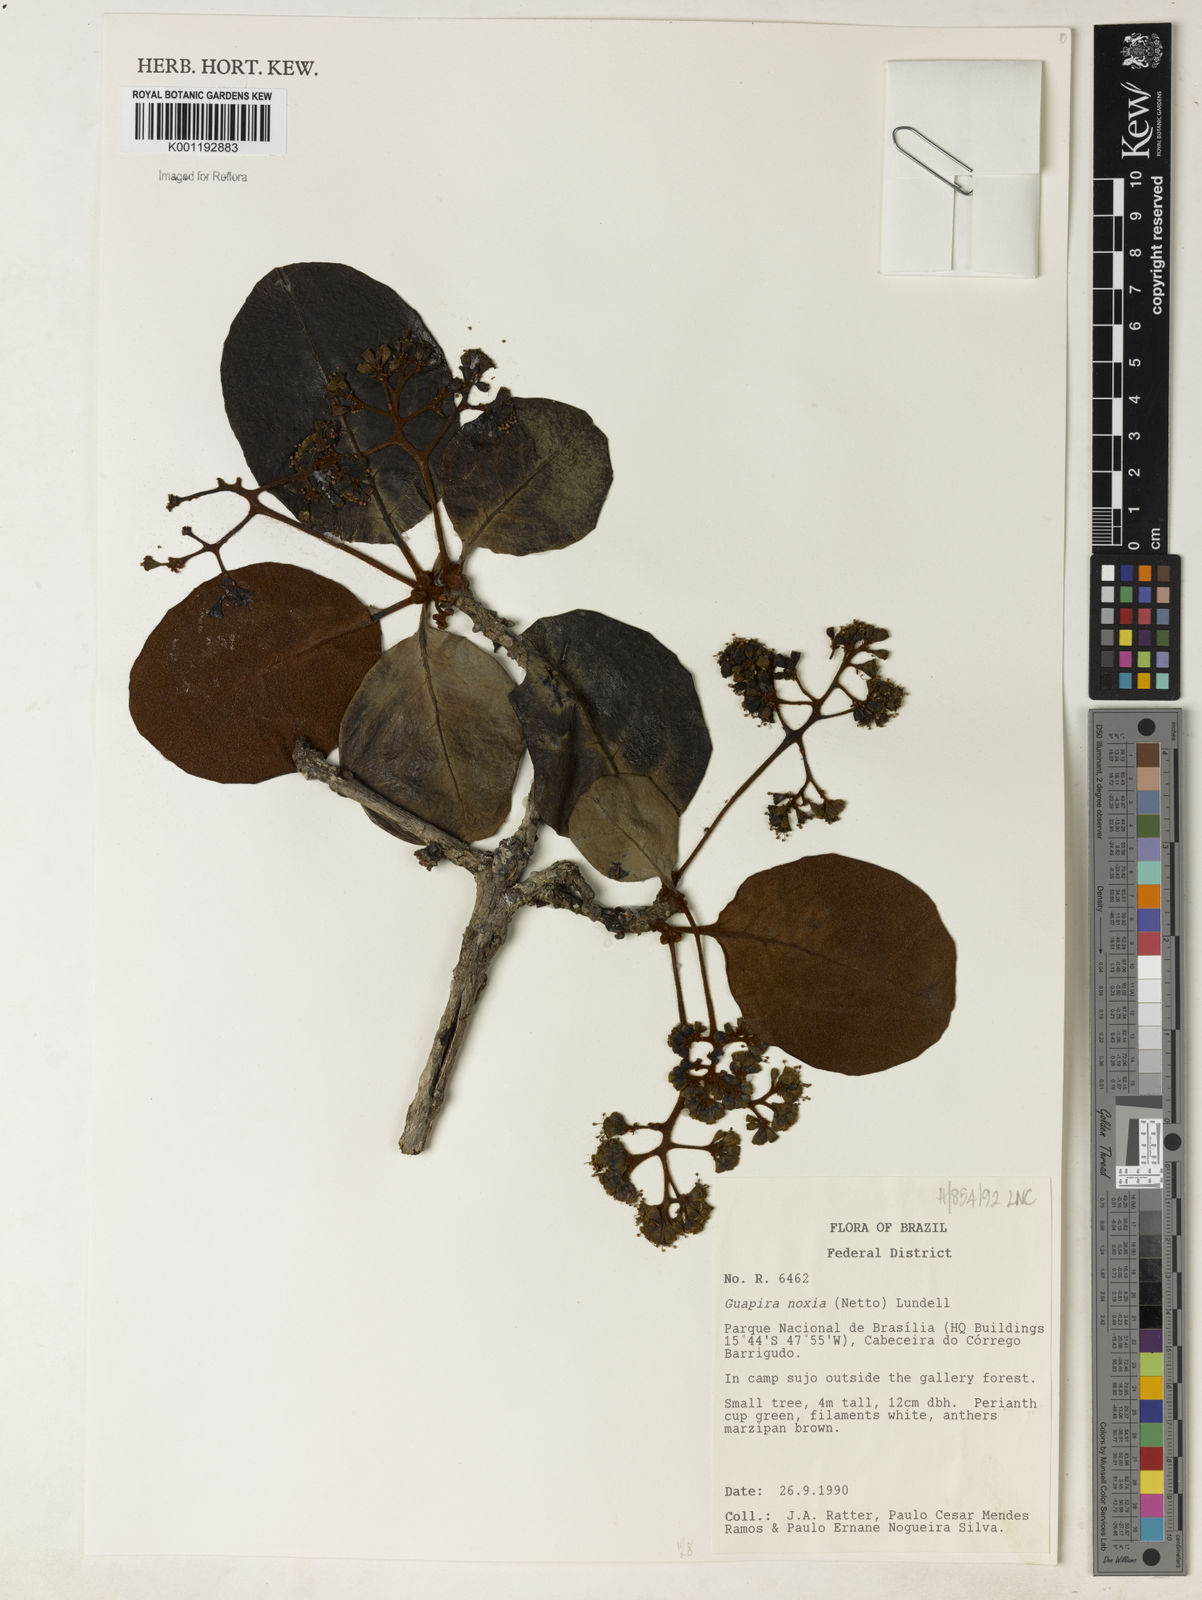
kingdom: Plantae
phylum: Tracheophyta
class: Magnoliopsida
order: Caryophyllales
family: Nyctaginaceae
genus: Guapira
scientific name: Guapira noxia
